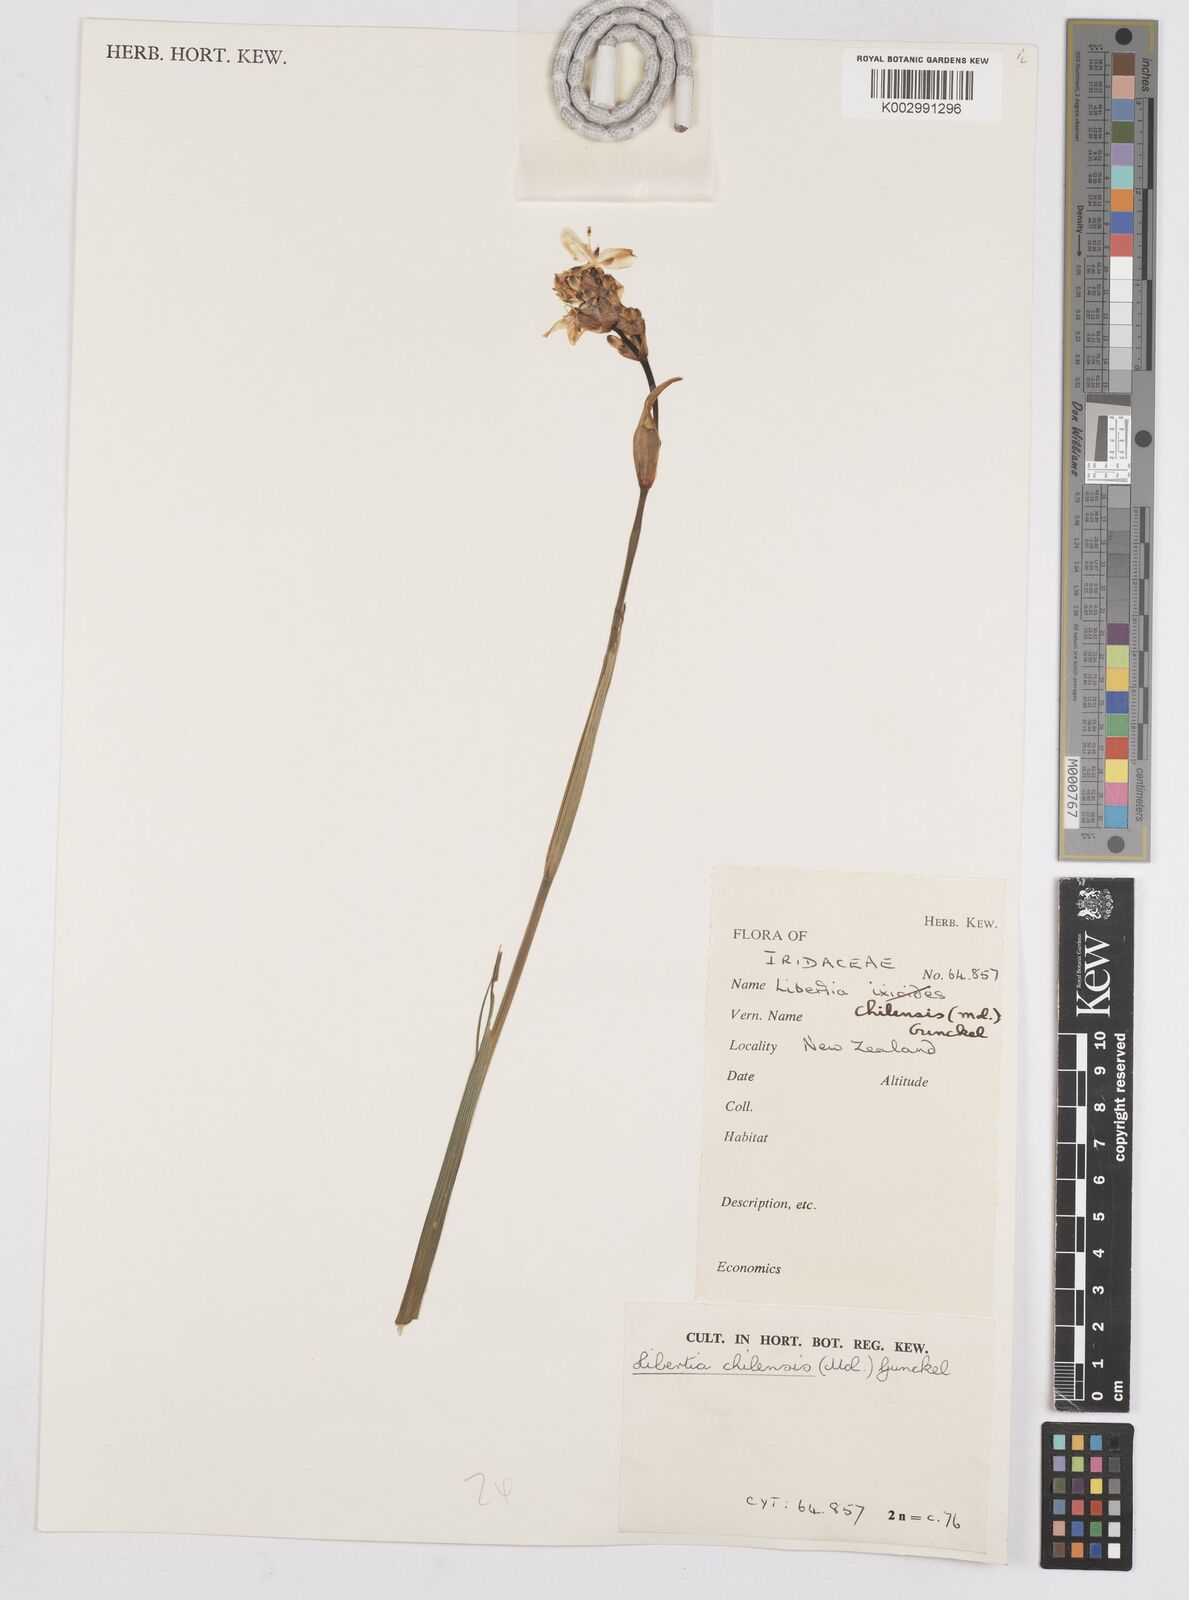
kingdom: Plantae
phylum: Tracheophyta
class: Liliopsida
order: Asparagales
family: Iridaceae
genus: Libertia
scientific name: Libertia chilensis
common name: Satin flower
